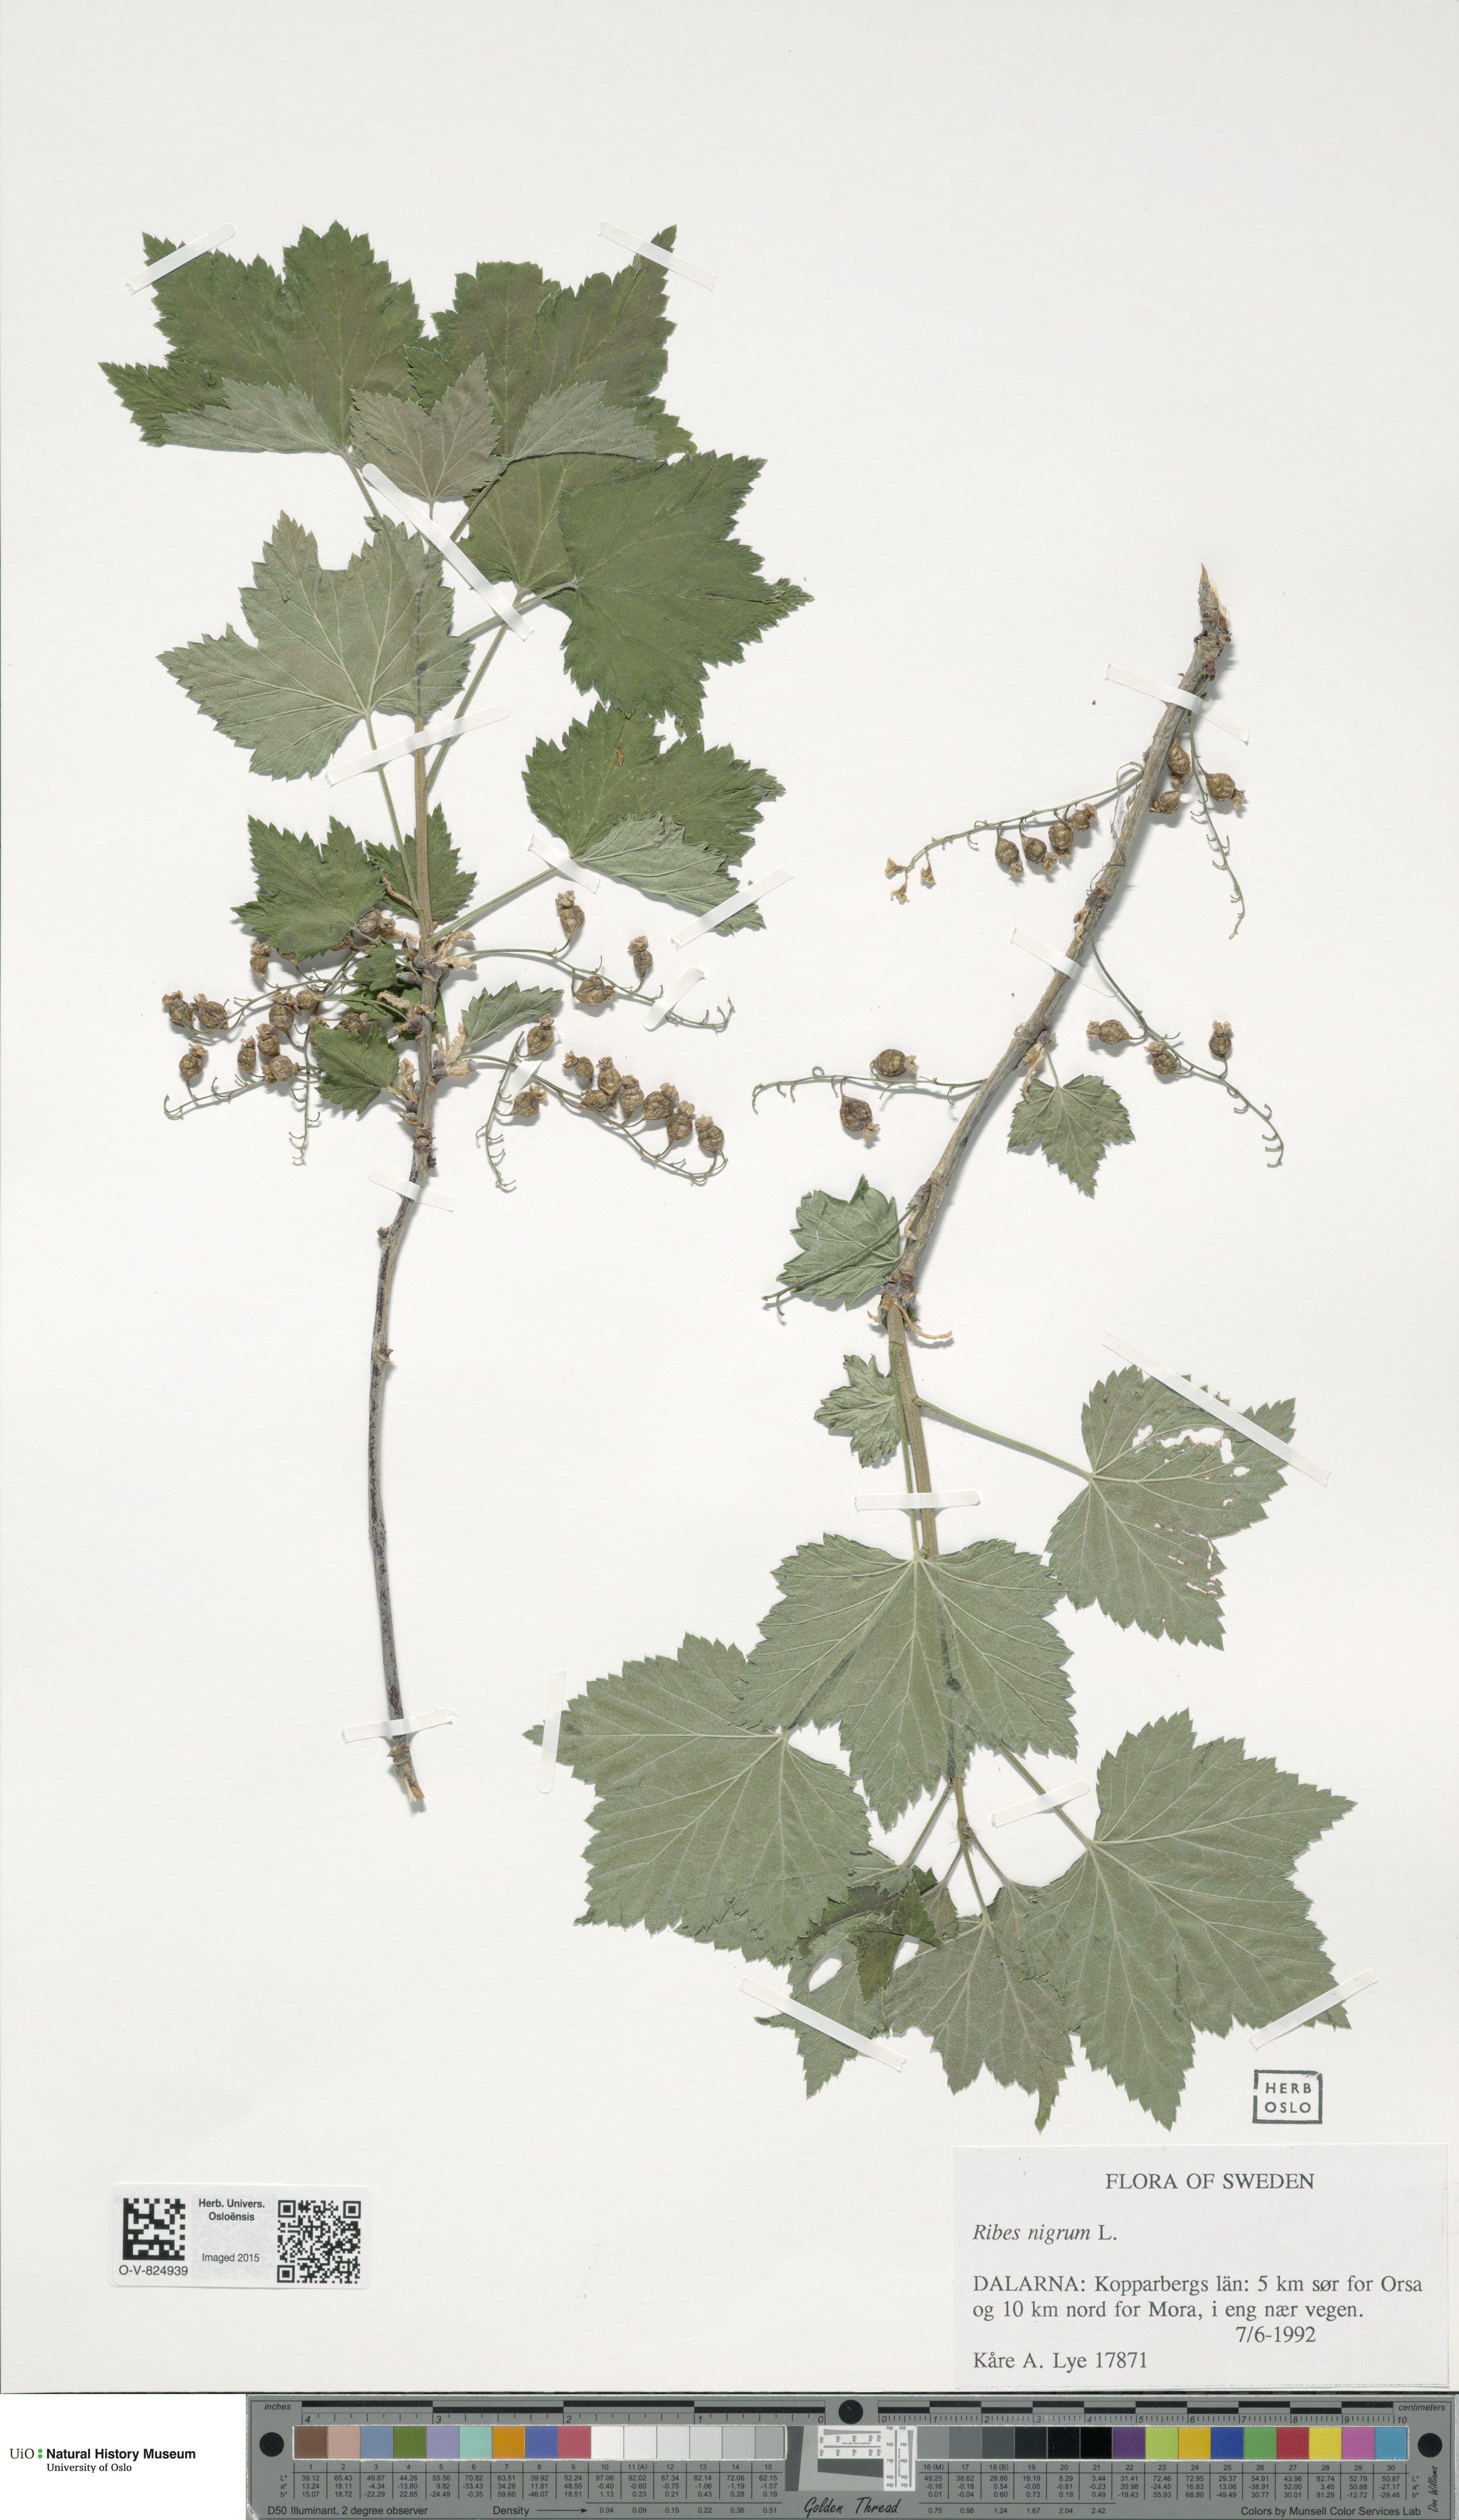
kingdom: Plantae
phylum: Tracheophyta
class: Magnoliopsida
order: Saxifragales
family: Grossulariaceae
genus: Ribes
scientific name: Ribes nigrum
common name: Black currant
